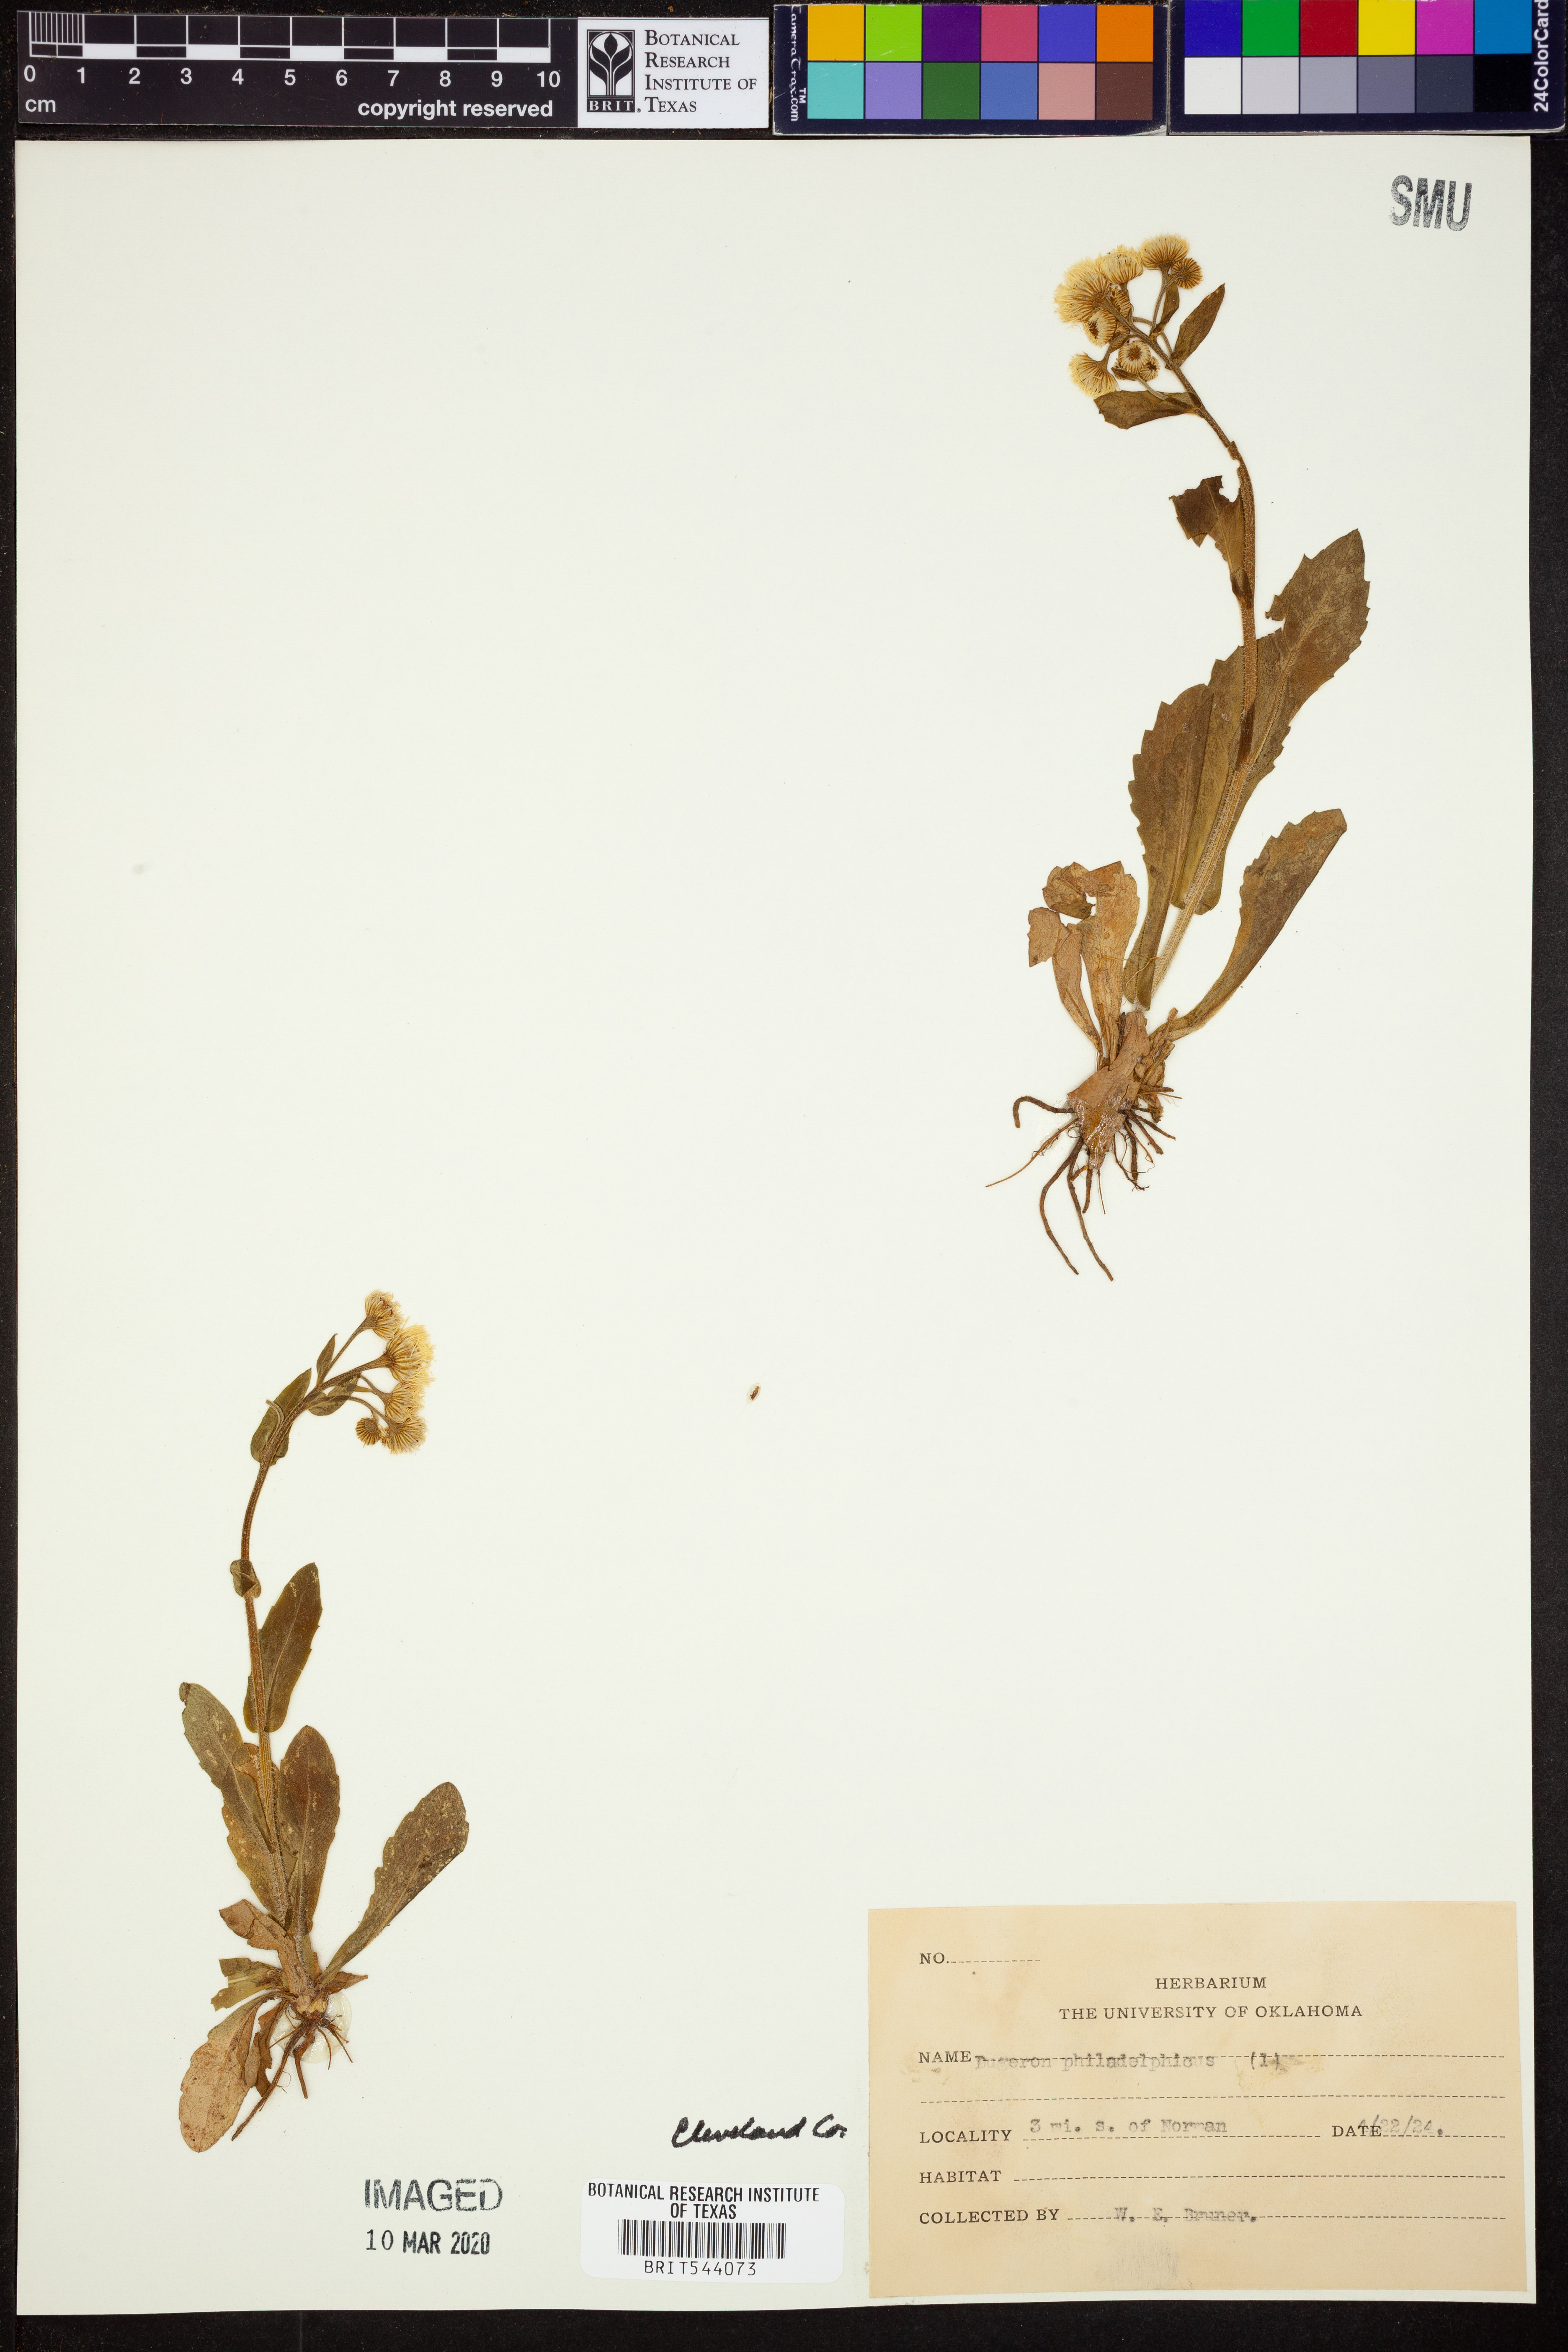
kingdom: Plantae
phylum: Tracheophyta
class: Magnoliopsida
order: Asterales
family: Asteraceae
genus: Erigeron
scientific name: Erigeron philadelphicus
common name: Robin's-plantain
